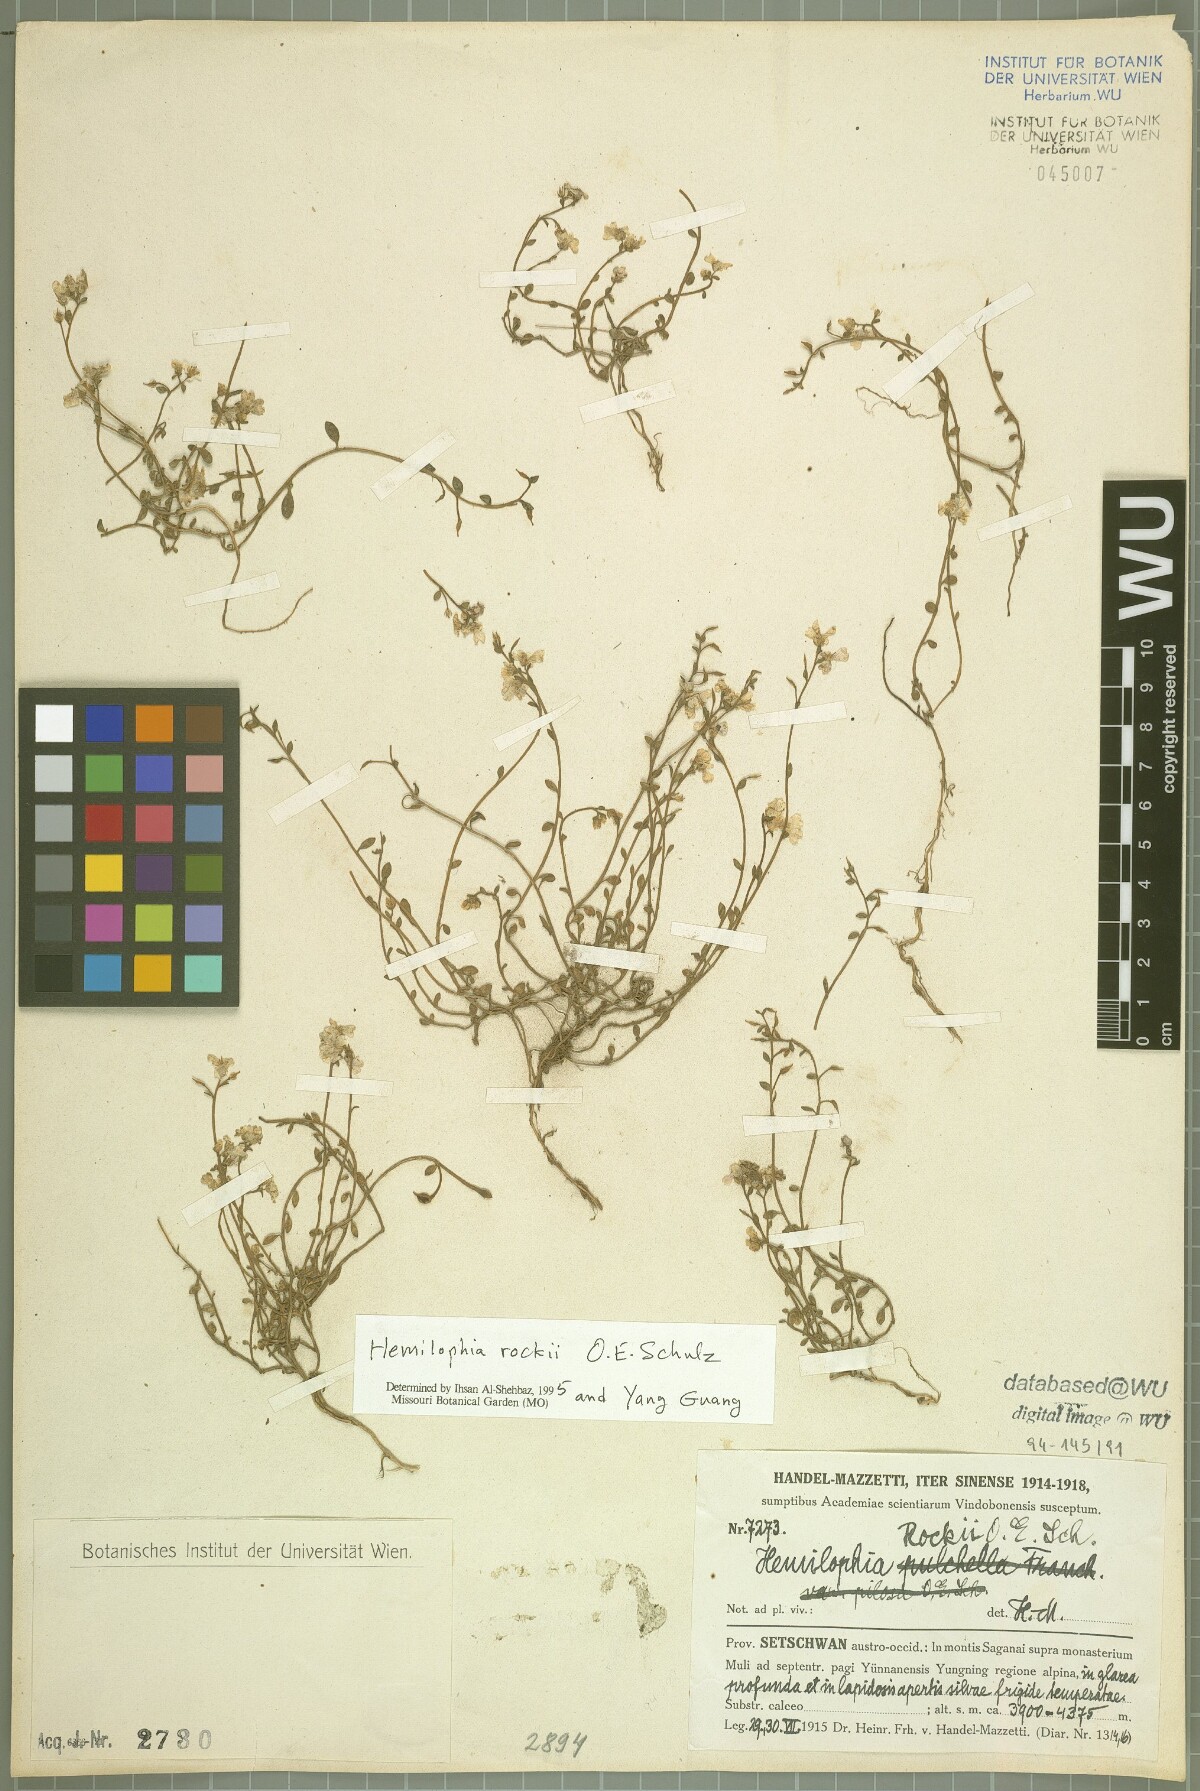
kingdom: Plantae
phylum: Tracheophyta
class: Magnoliopsida
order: Brassicales
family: Brassicaceae
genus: Hemilophia
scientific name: Hemilophia rockii
